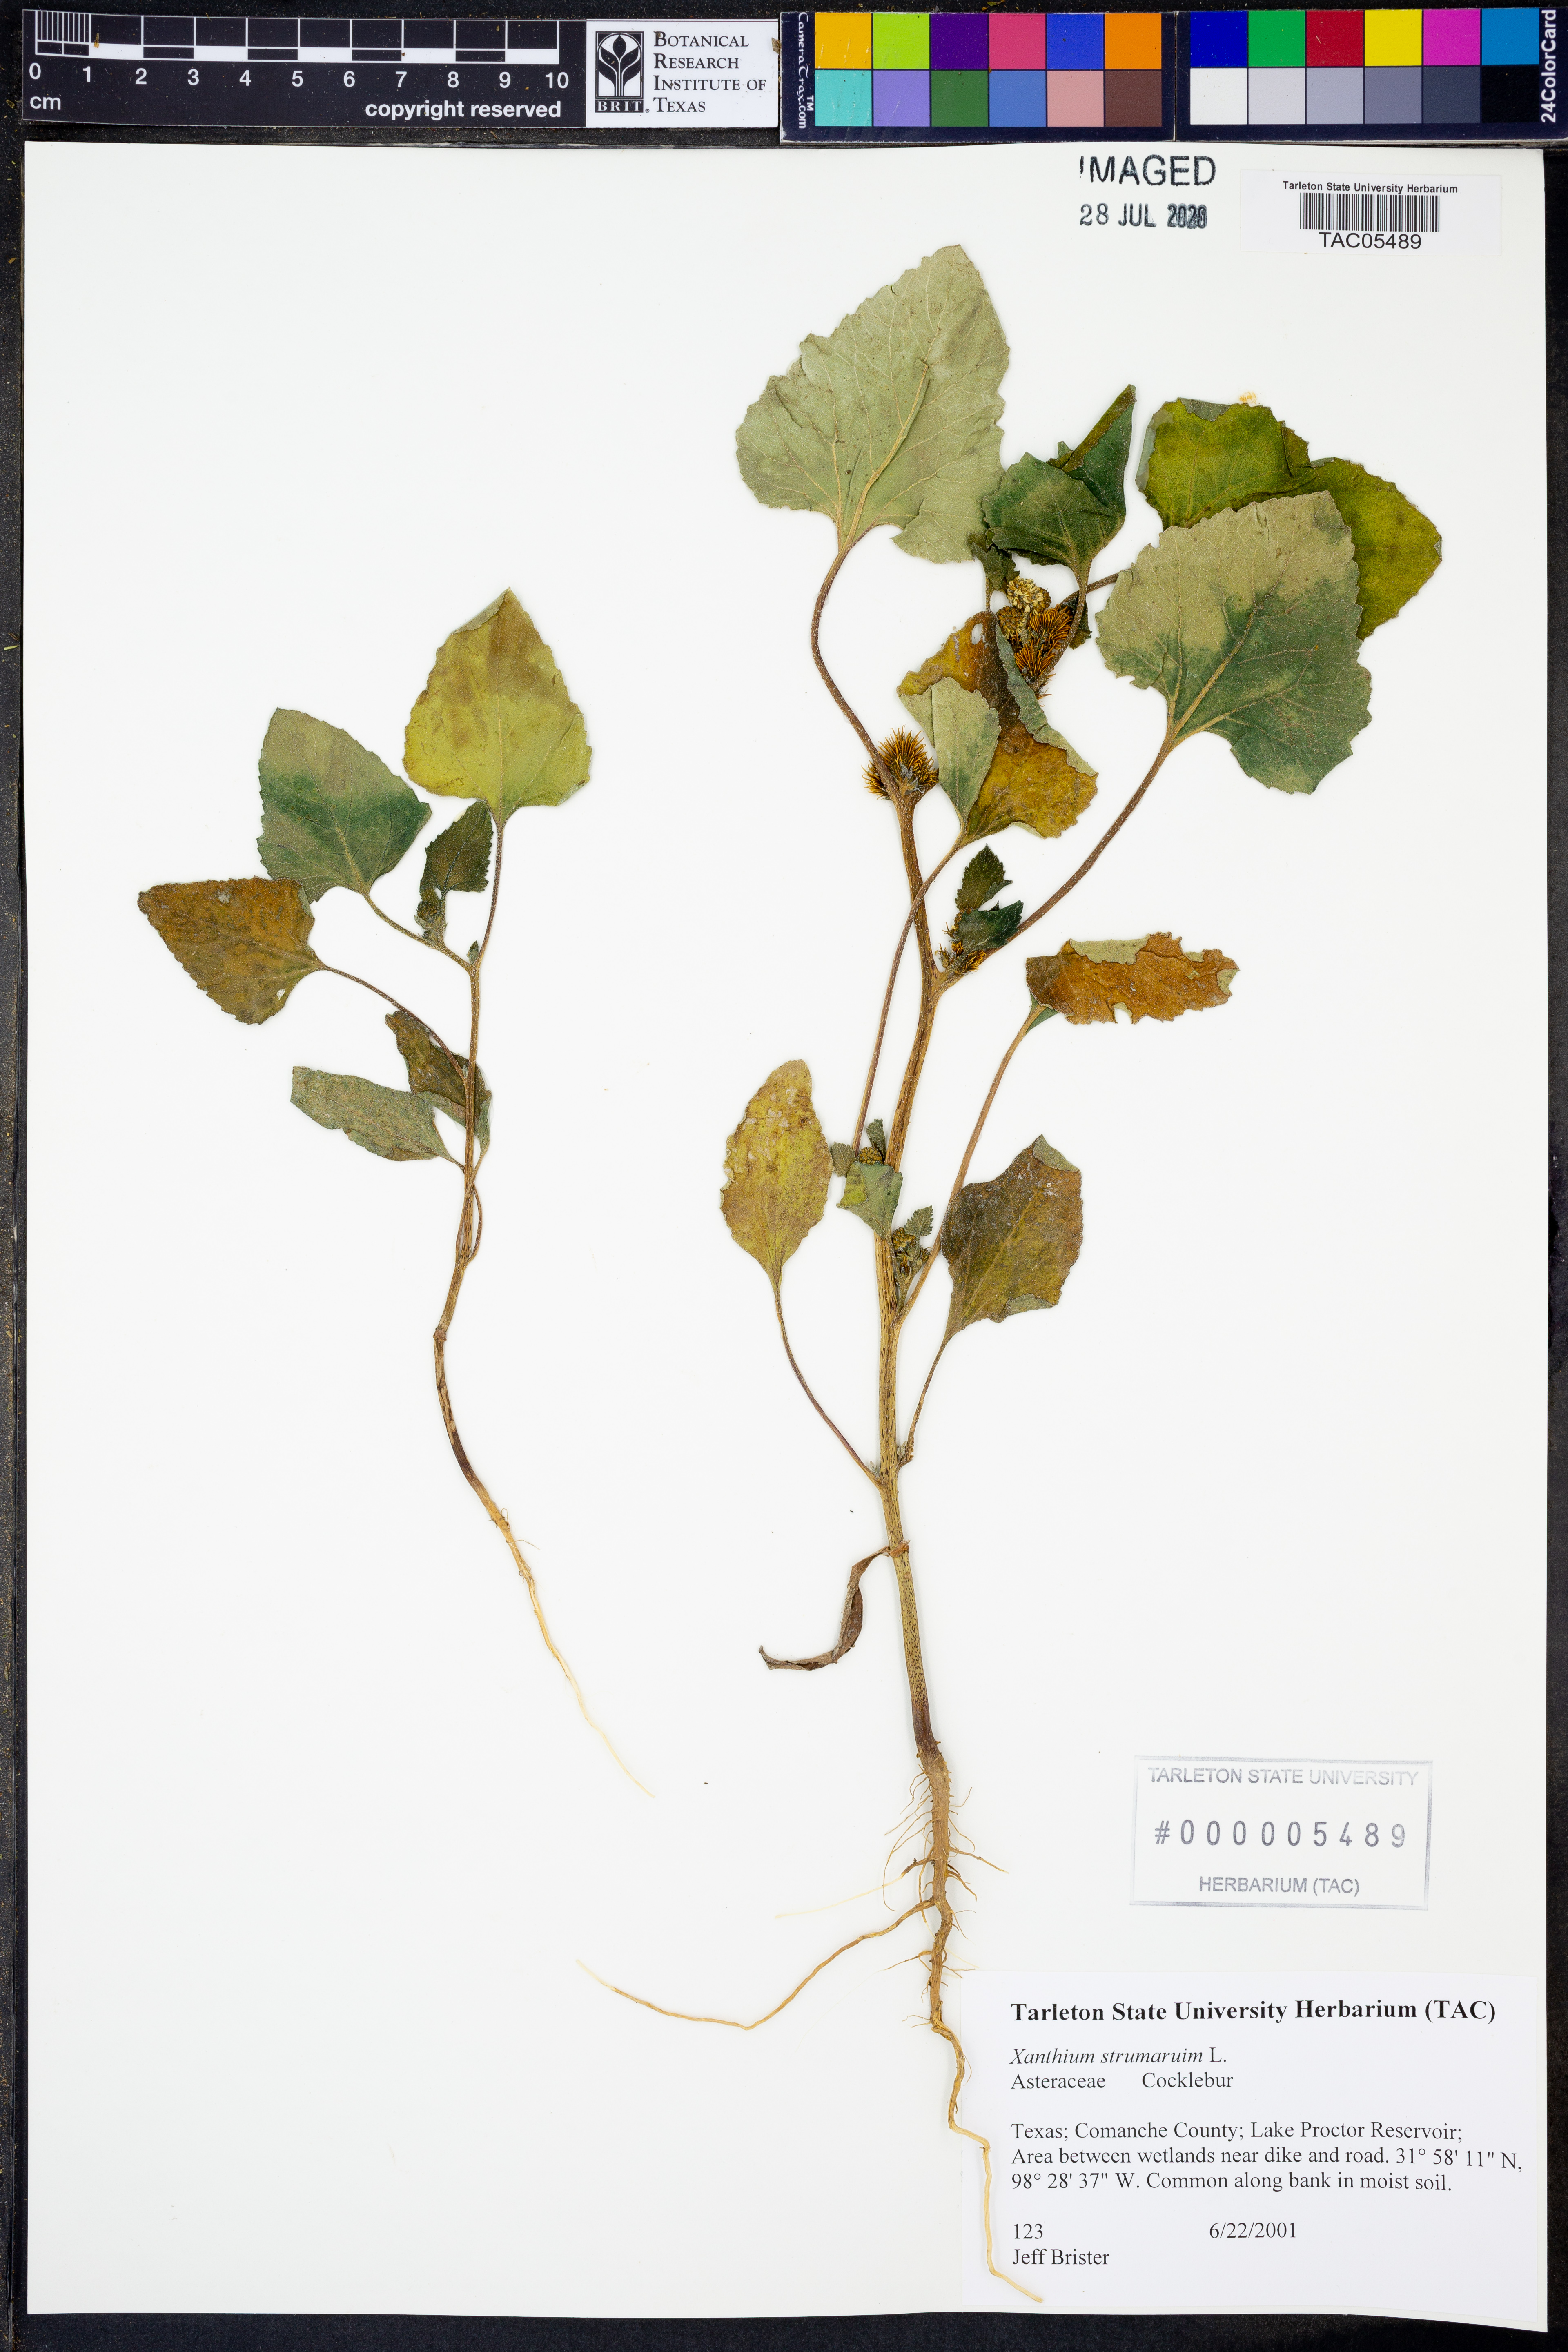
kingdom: Plantae
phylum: Tracheophyta
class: Magnoliopsida
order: Asterales
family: Asteraceae
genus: Xanthium
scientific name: Xanthium strumarium
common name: Rough cocklebur
